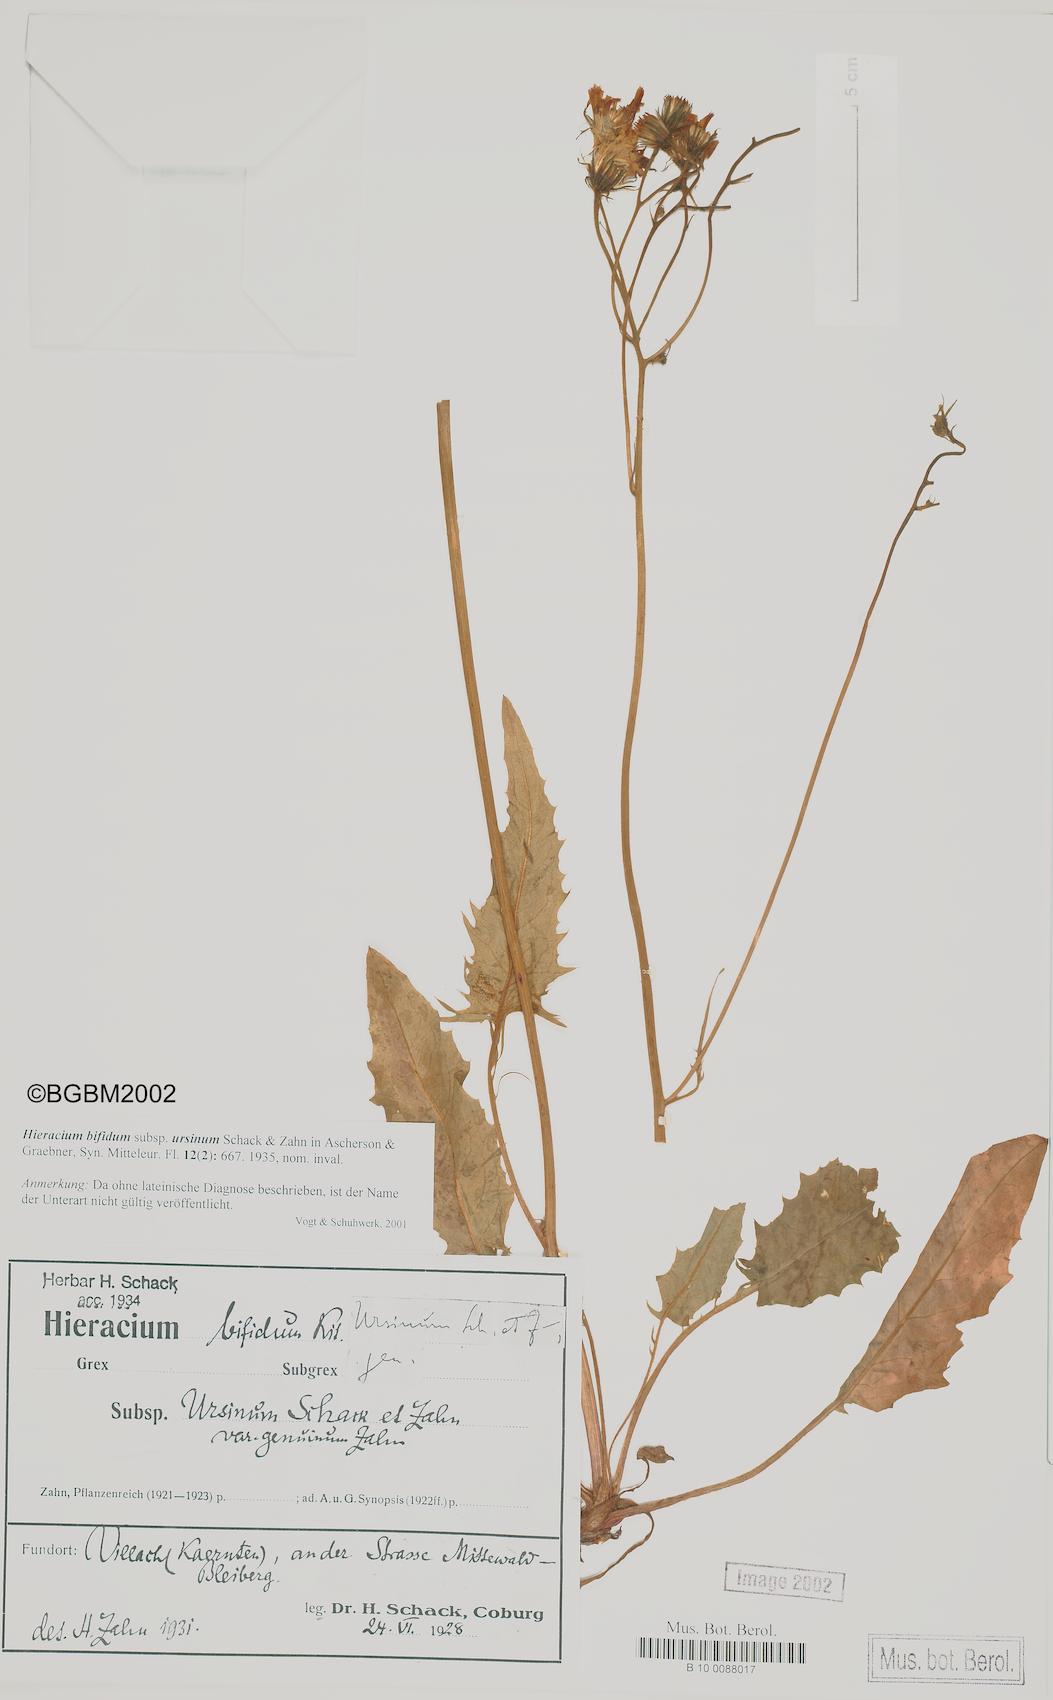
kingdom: Plantae
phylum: Tracheophyta
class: Magnoliopsida
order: Asterales
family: Asteraceae
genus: Hieracium
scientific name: Hieracium bifidum
